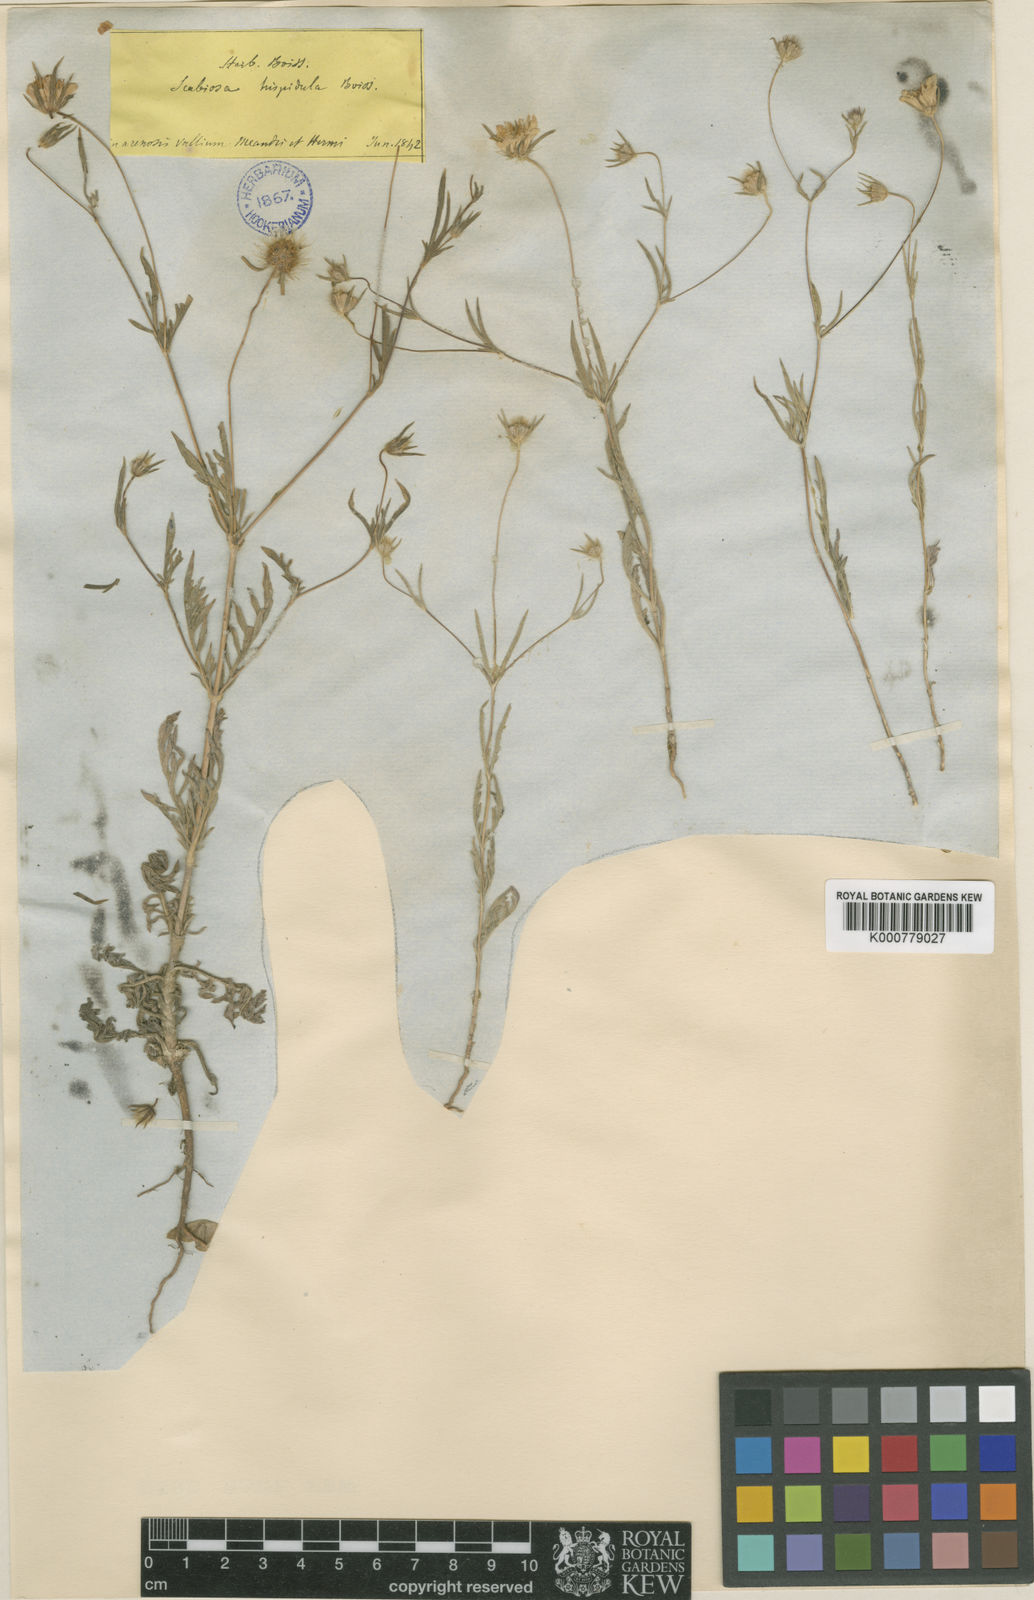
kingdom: Plantae
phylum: Tracheophyta
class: Magnoliopsida
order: Dipsacales
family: Caprifoliaceae
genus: Lomelosia
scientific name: Lomelosia hispidula
